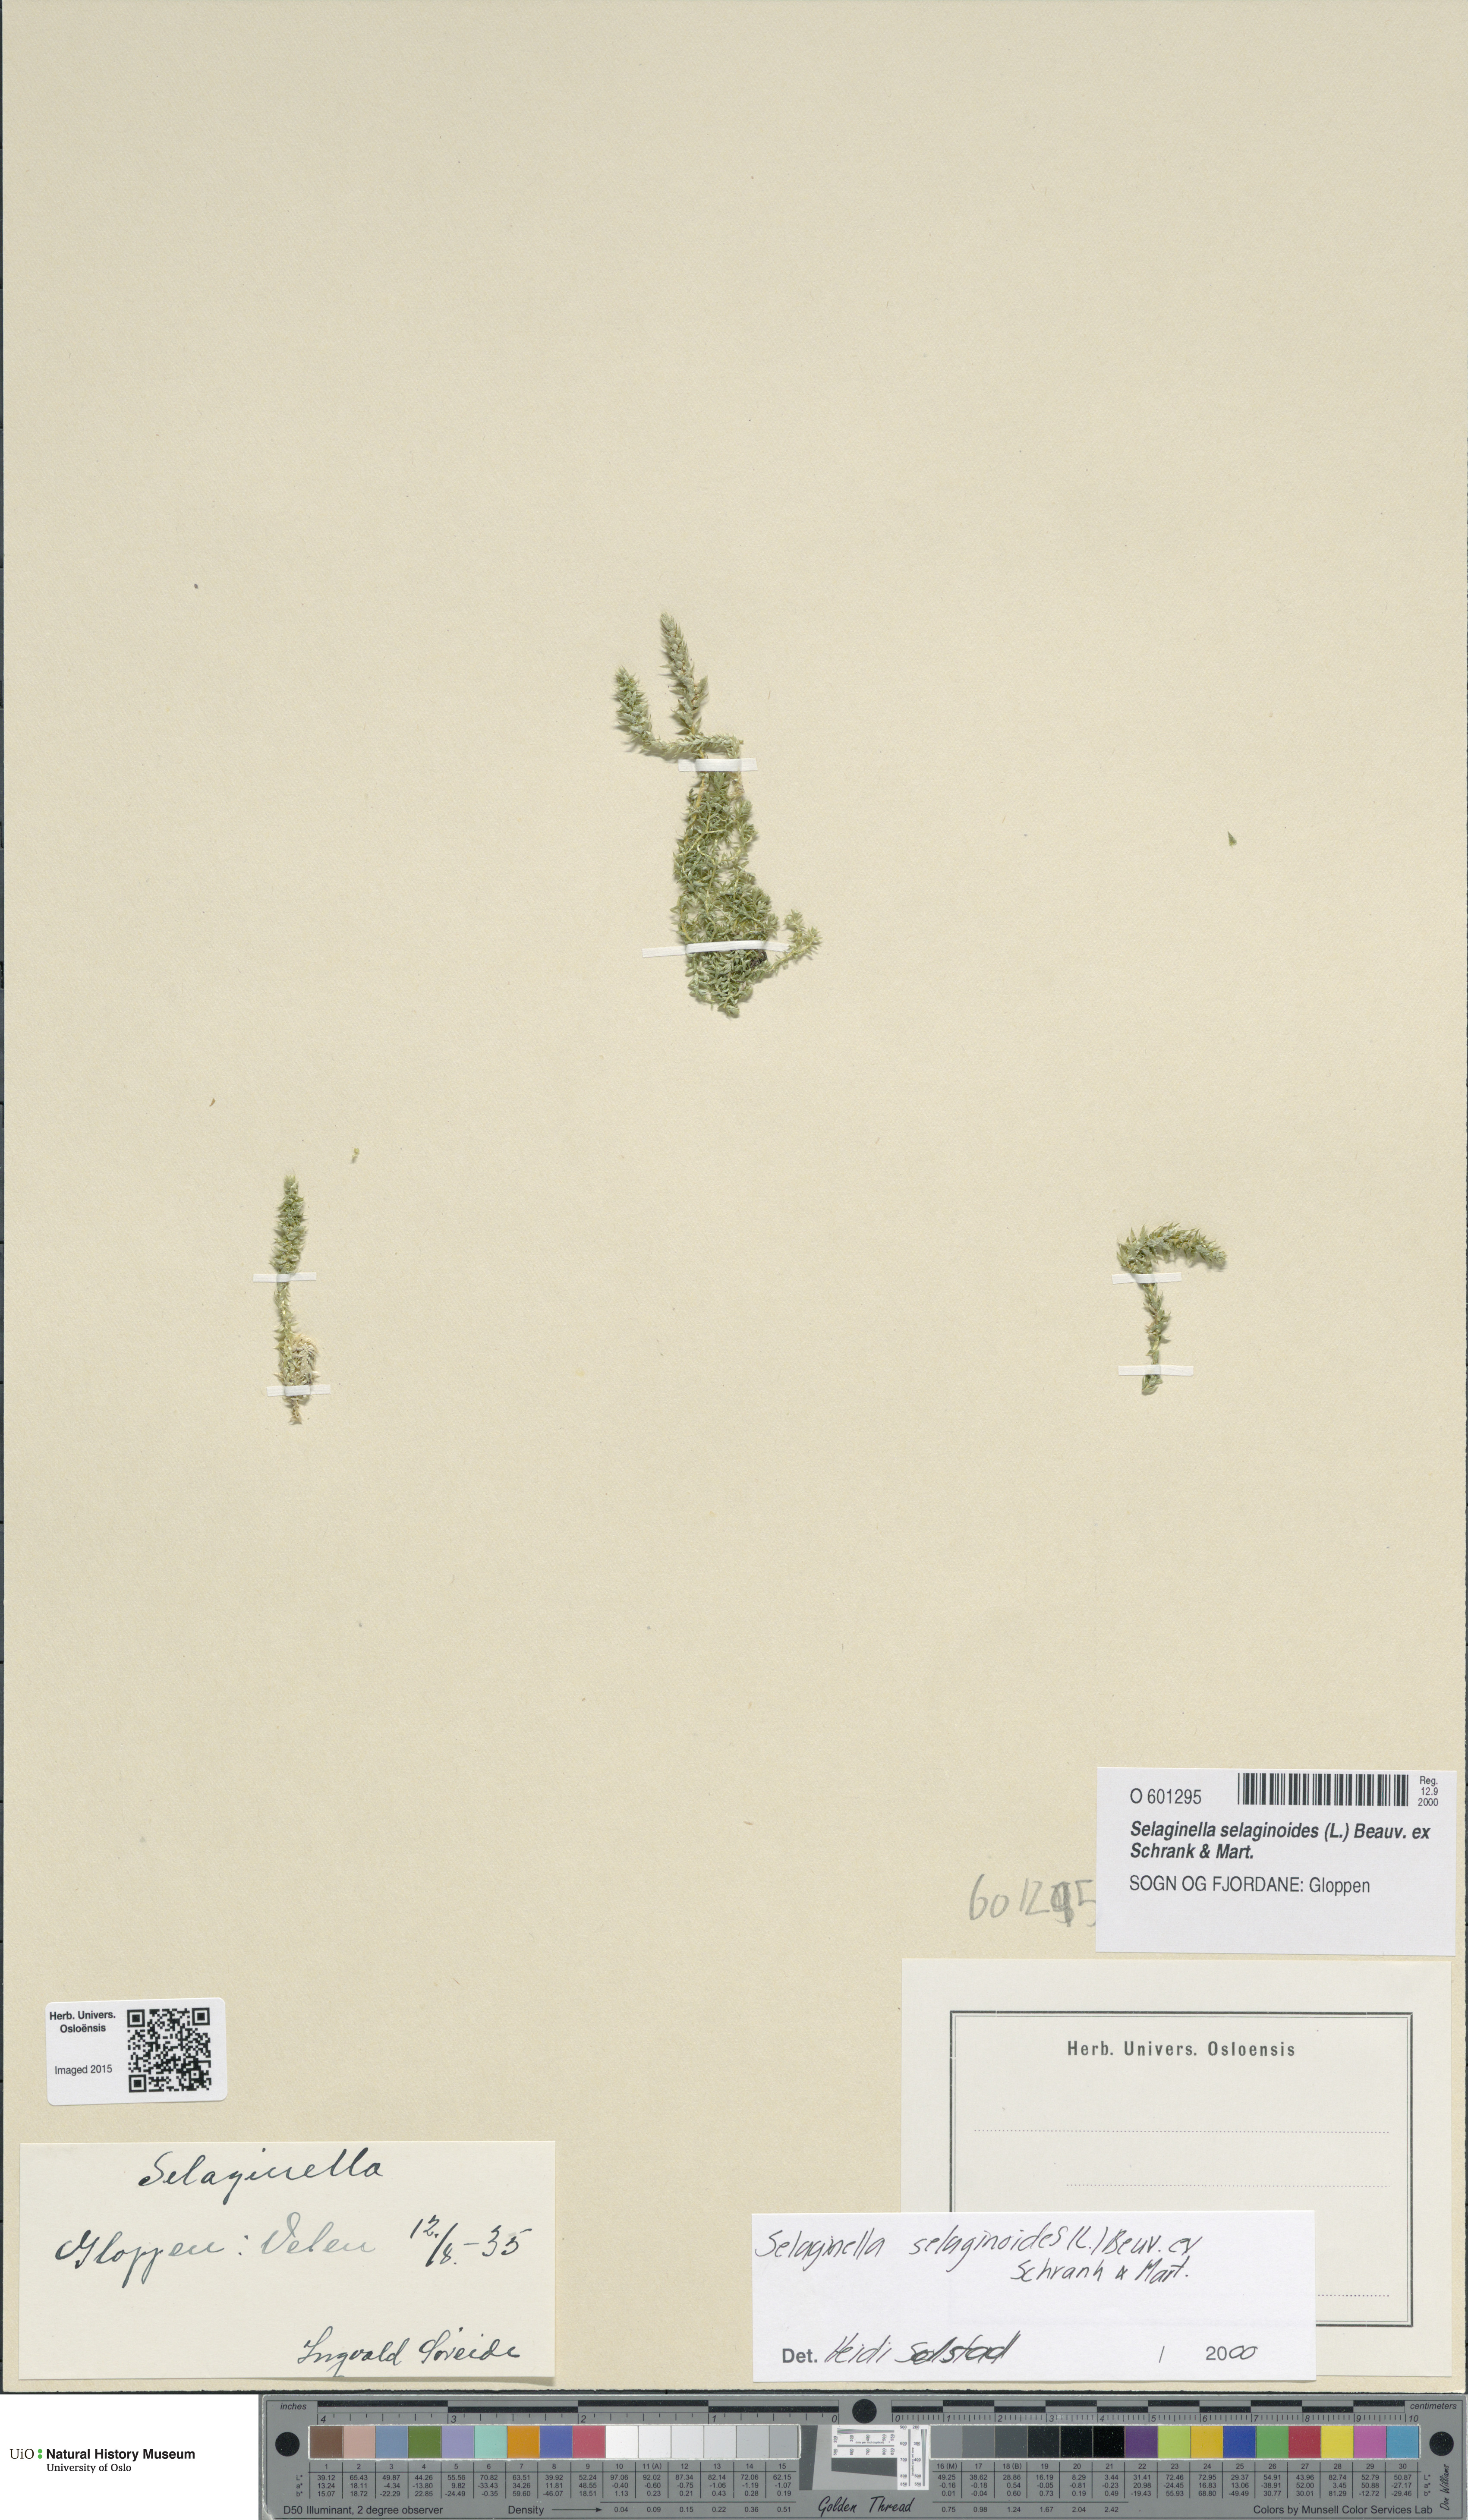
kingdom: Plantae
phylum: Tracheophyta
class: Lycopodiopsida
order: Selaginellales
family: Selaginellaceae
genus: Selaginella
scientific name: Selaginella selaginoides
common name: Prickly mountain-moss
